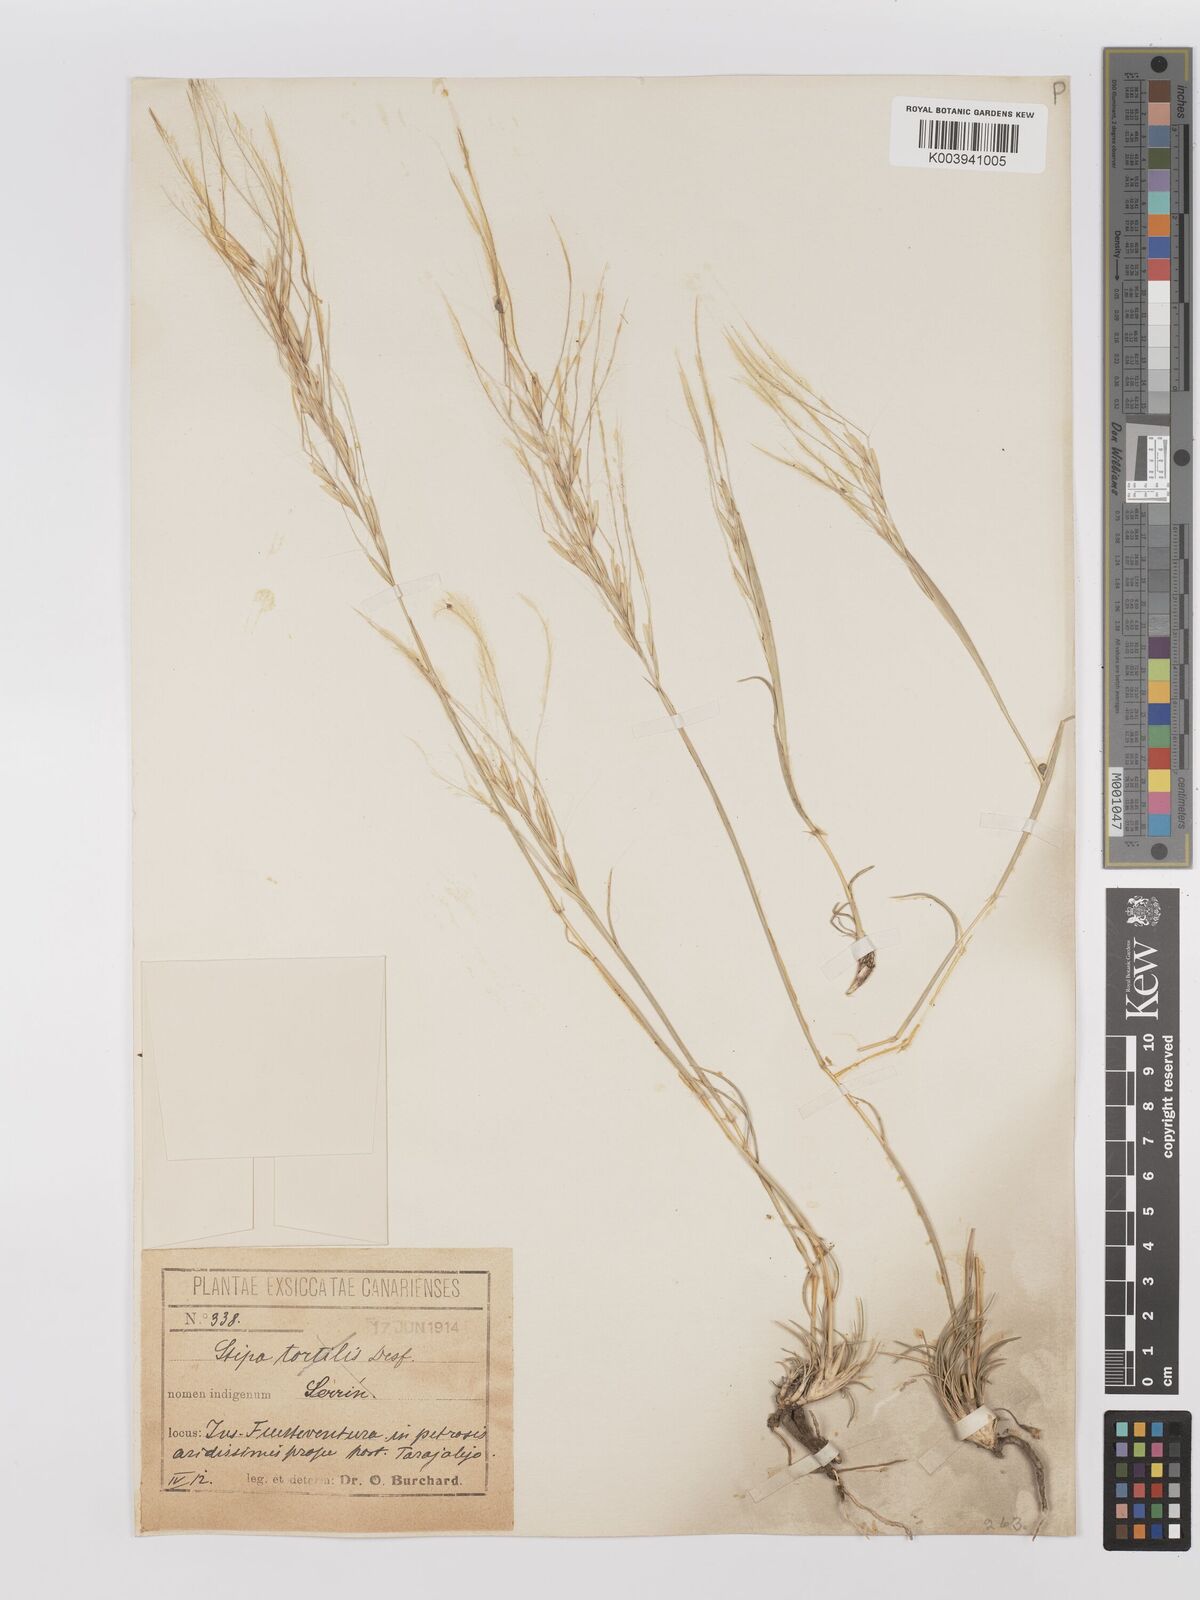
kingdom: Plantae
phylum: Tracheophyta
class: Liliopsida
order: Poales
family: Poaceae
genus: Stipagrostis
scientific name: Stipagrostis ciliata
